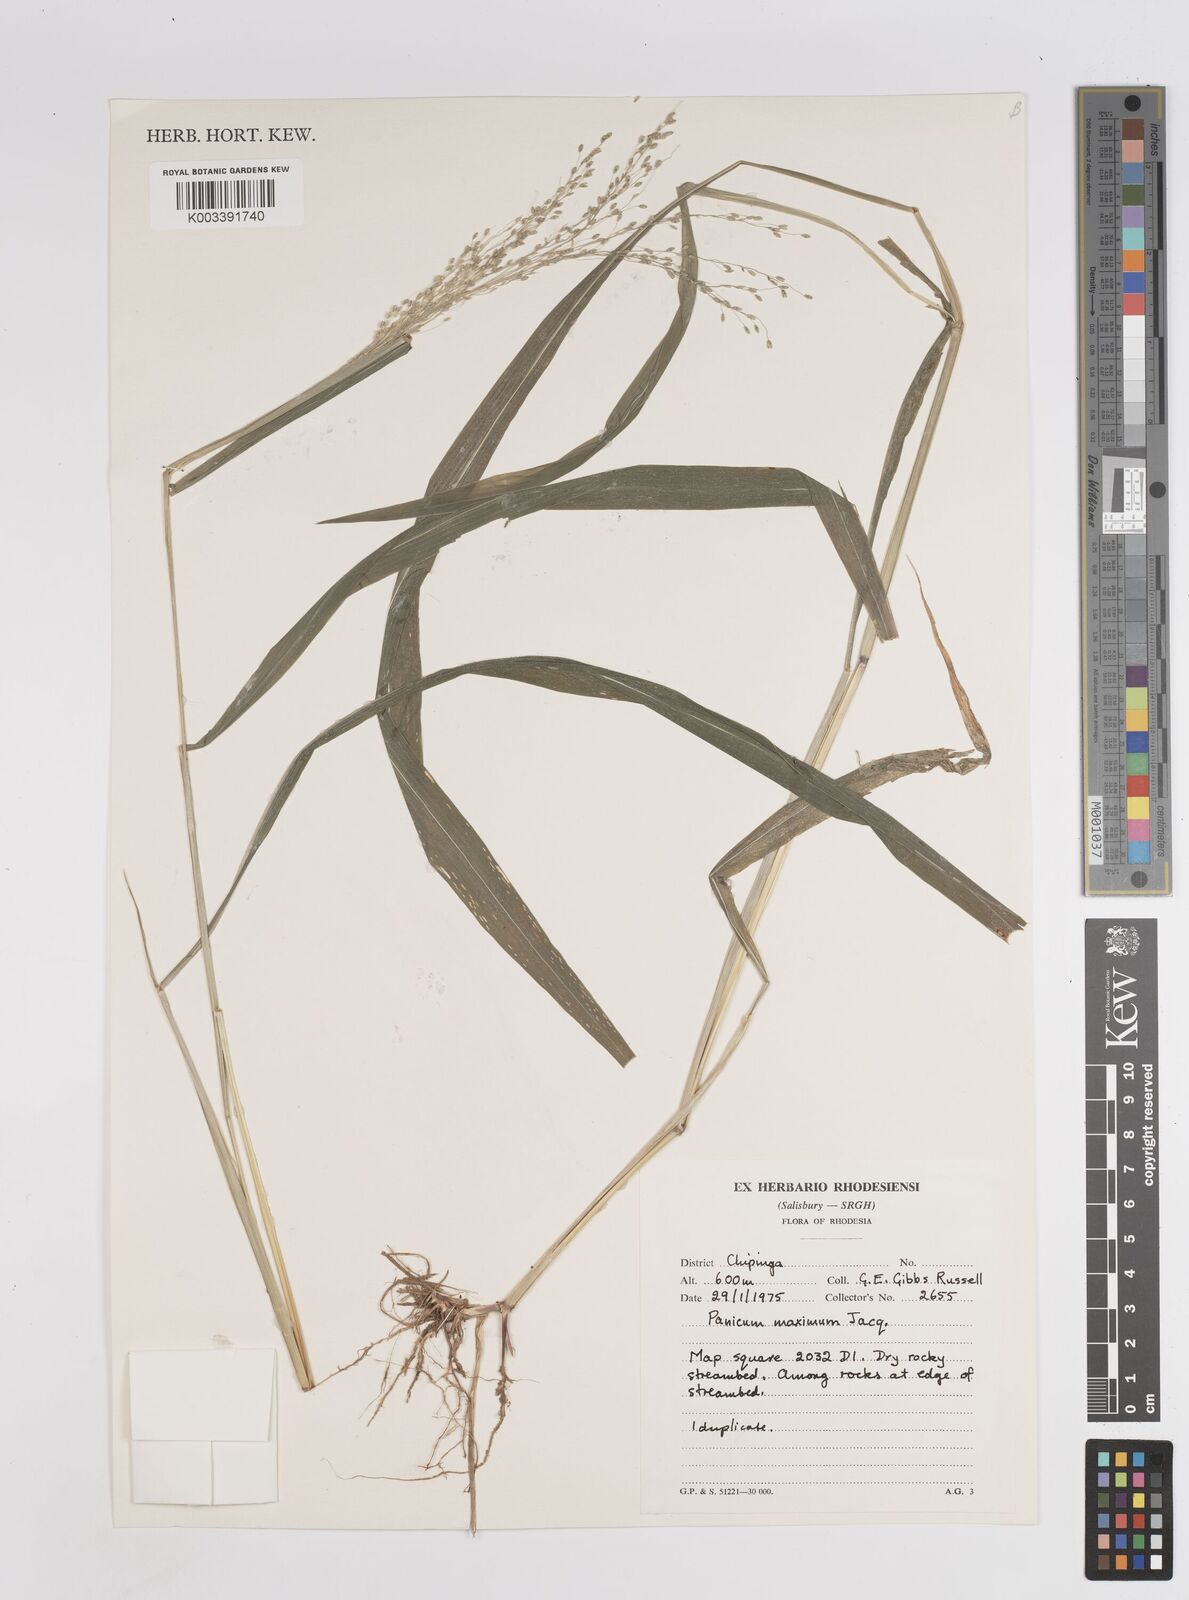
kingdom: Plantae
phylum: Tracheophyta
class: Liliopsida
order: Poales
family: Poaceae
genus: Megathyrsus
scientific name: Megathyrsus maximus
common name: Guineagrass
